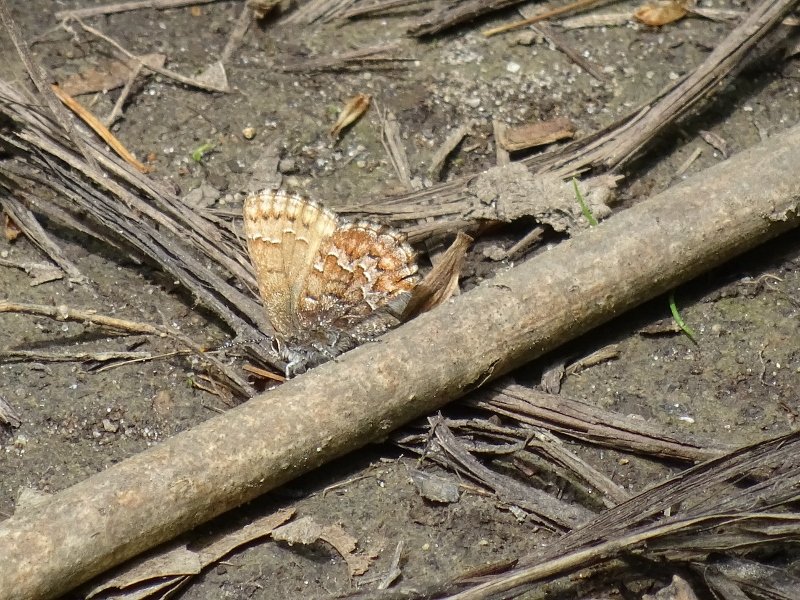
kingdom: Animalia
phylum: Arthropoda
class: Insecta
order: Lepidoptera
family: Lycaenidae
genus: Incisalia
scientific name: Incisalia niphon
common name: Eastern Pine Elfin
